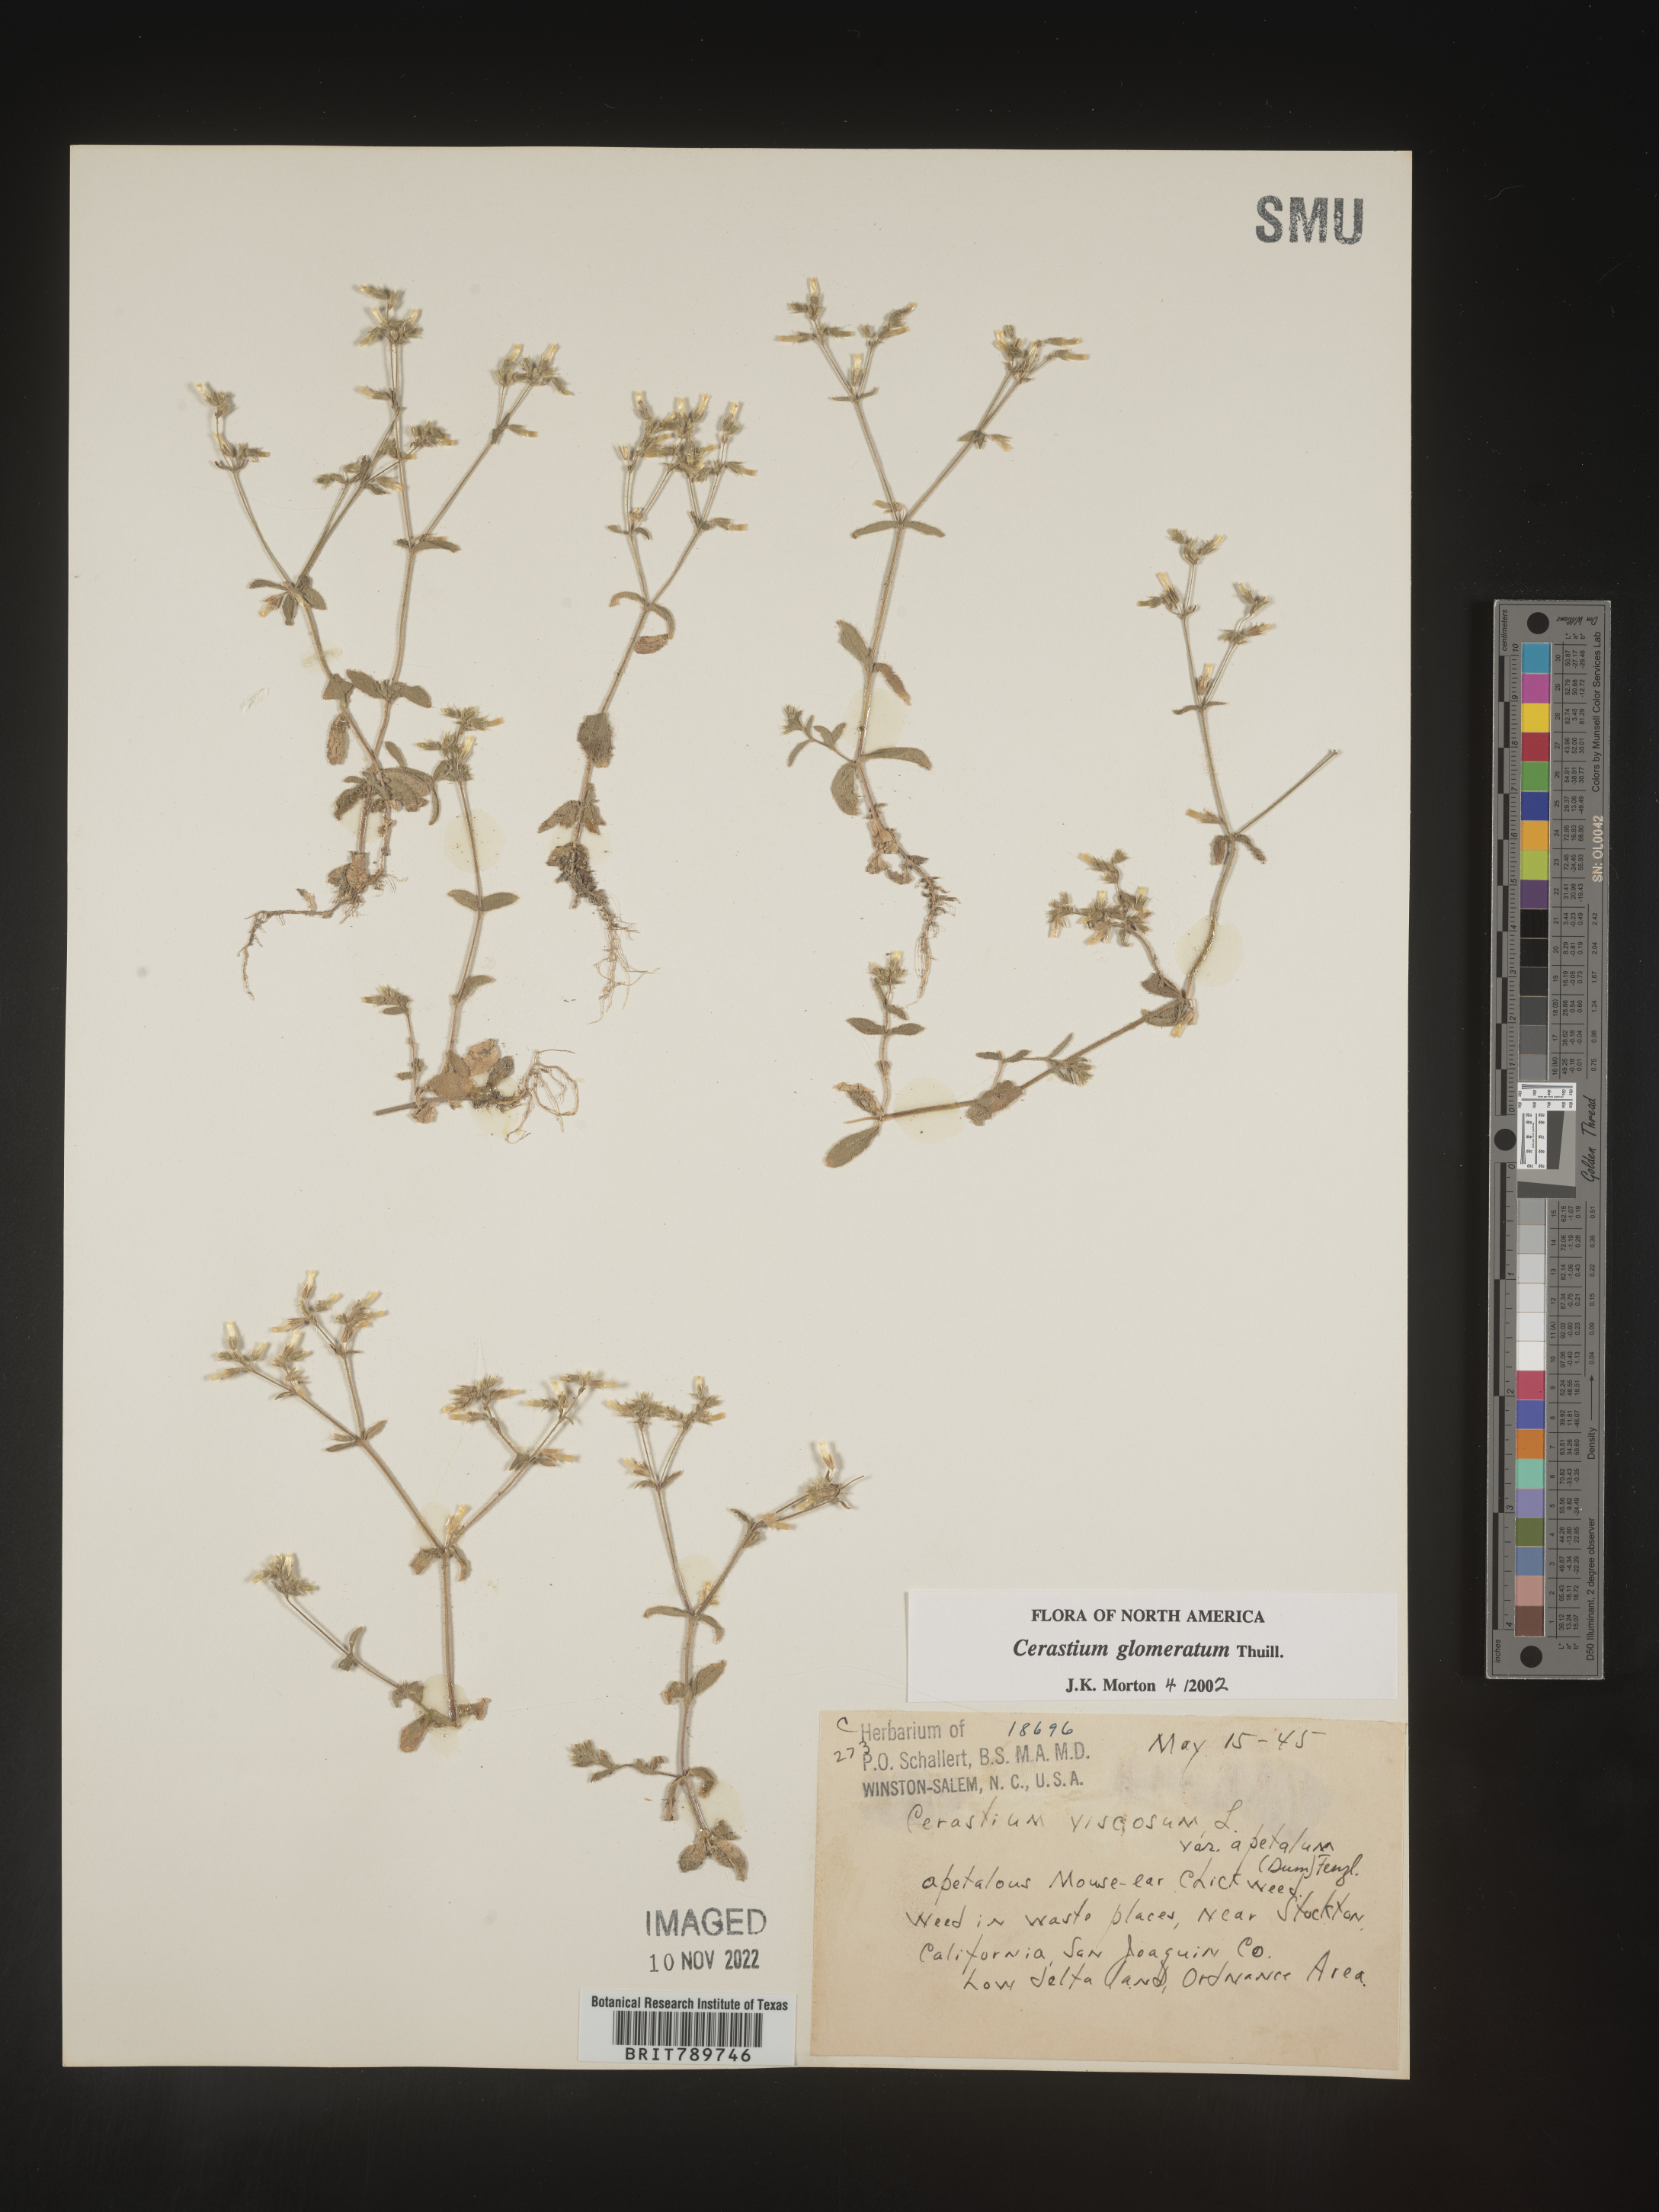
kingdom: Plantae
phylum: Tracheophyta
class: Magnoliopsida
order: Caryophyllales
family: Caryophyllaceae
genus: Cerastium
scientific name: Cerastium glomeratum
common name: Sticky chickweed
